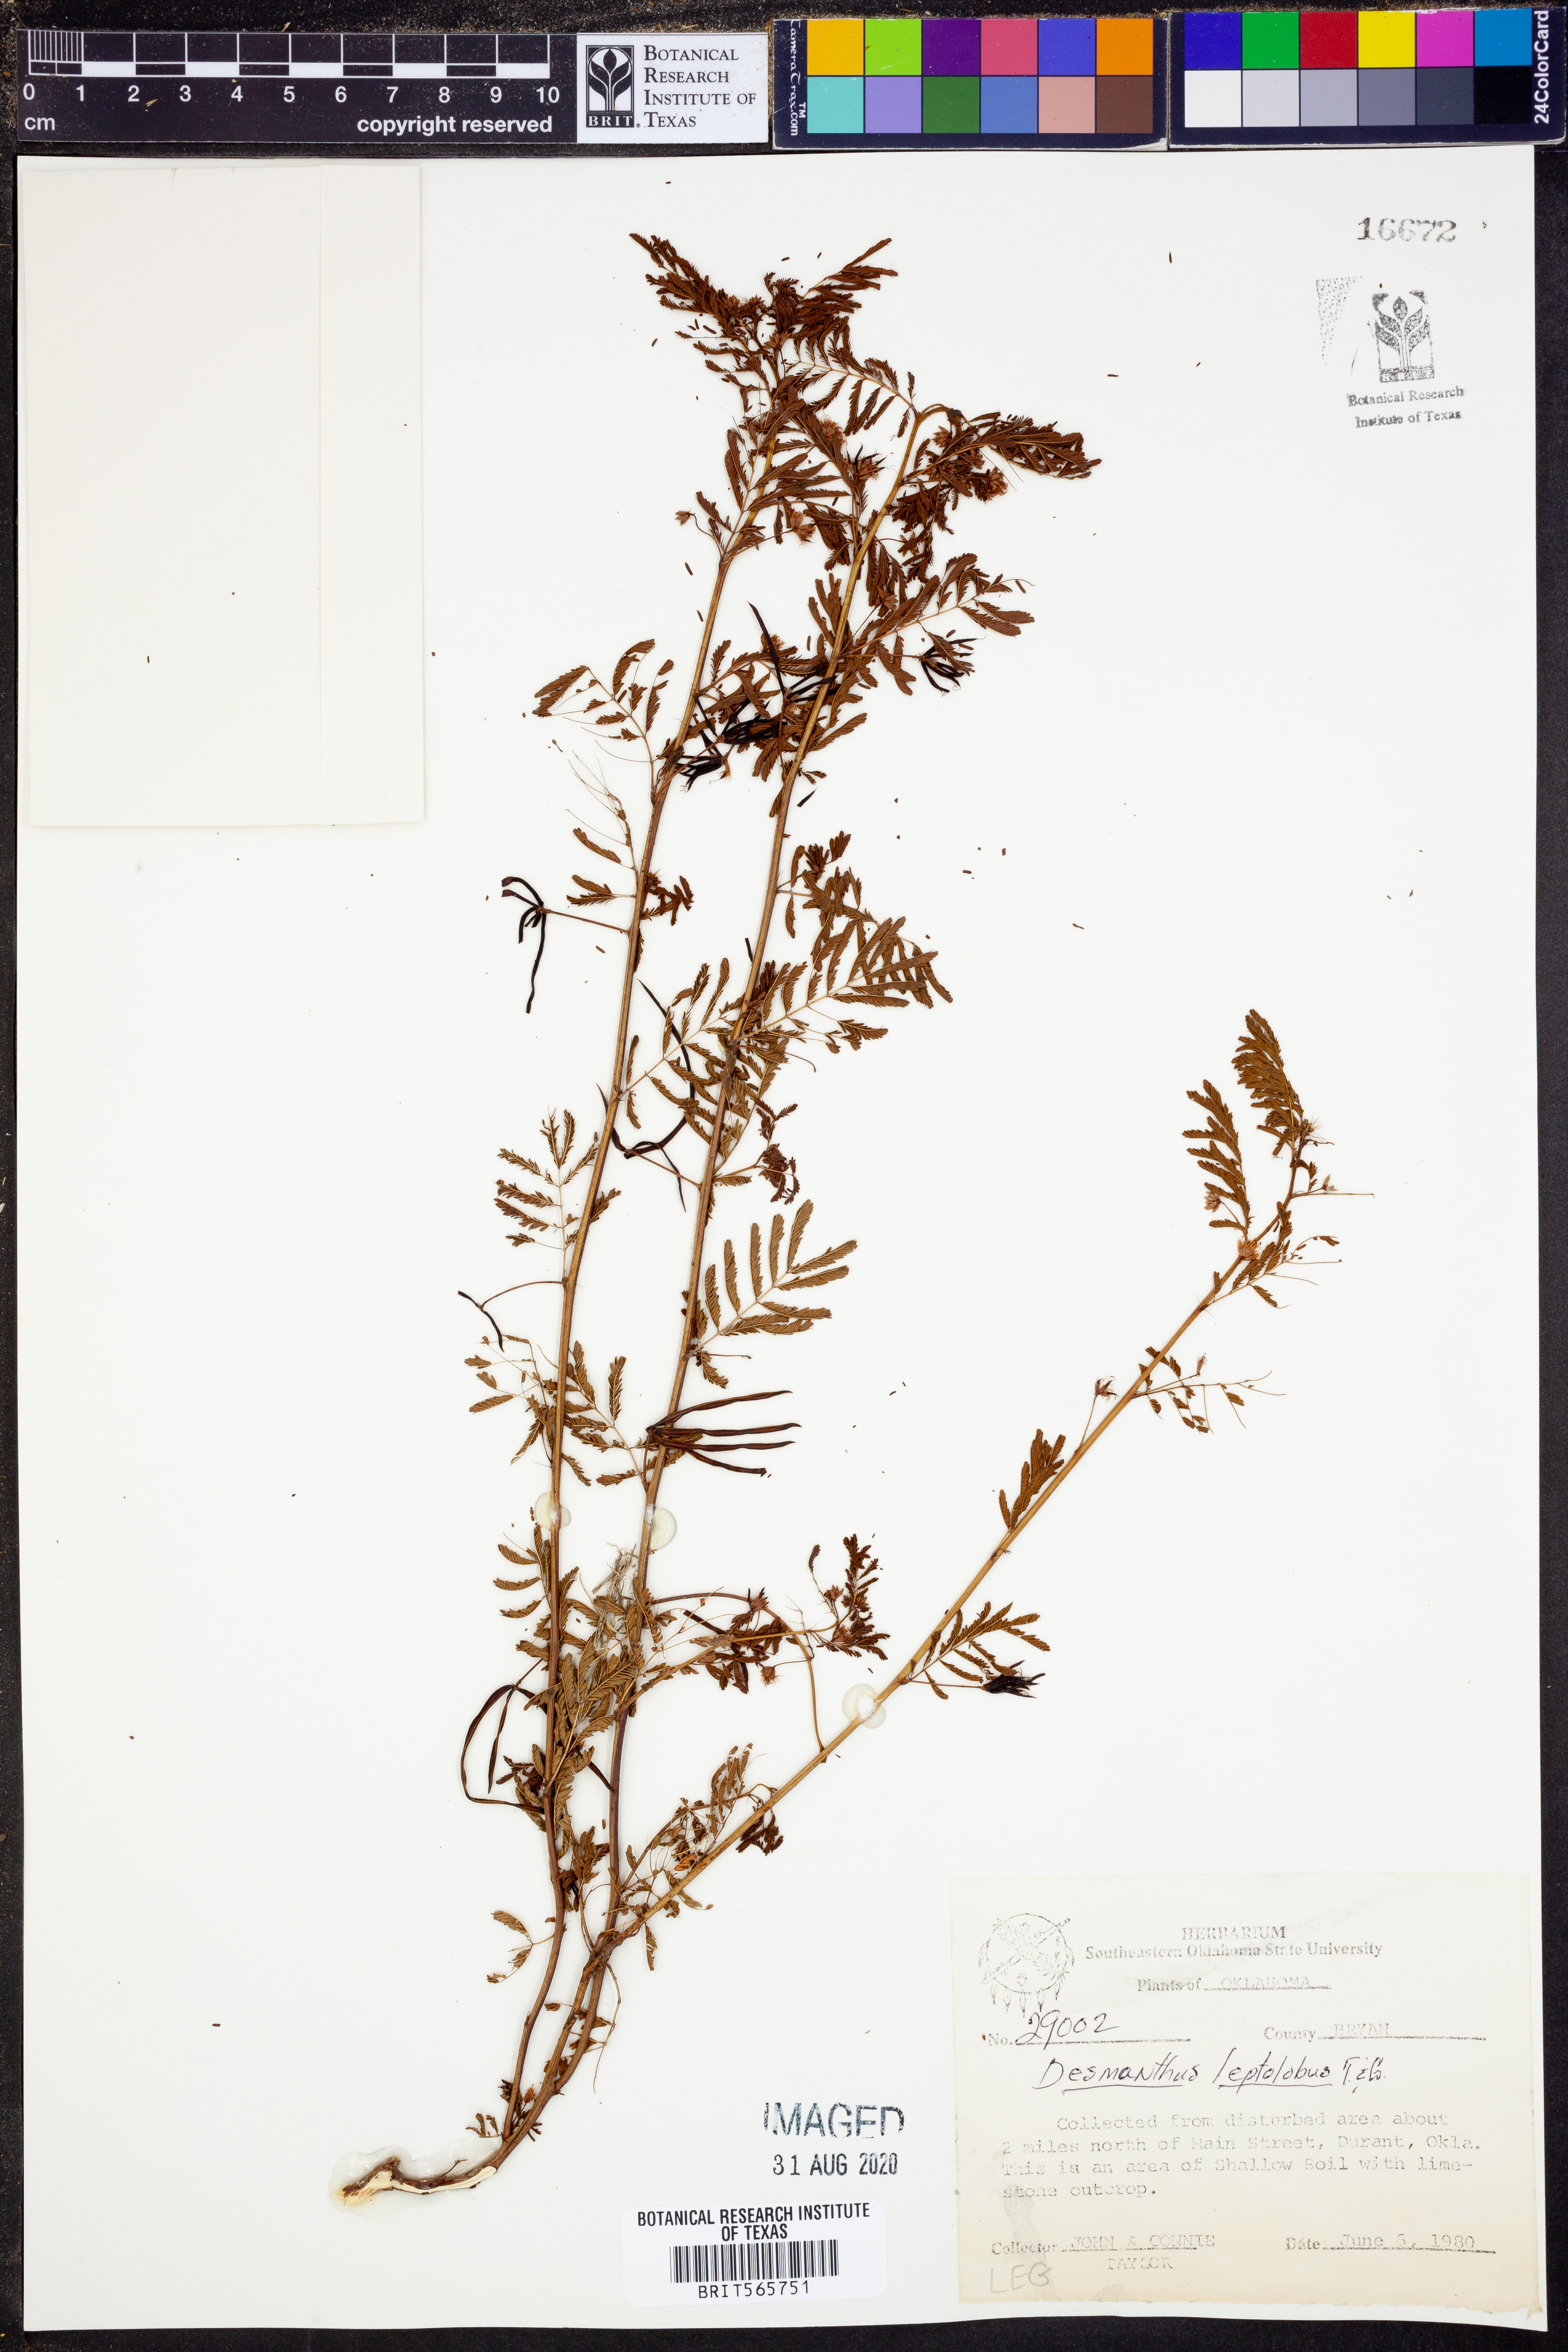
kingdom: Plantae
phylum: Tracheophyta
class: Magnoliopsida
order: Fabales
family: Fabaceae
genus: Desmanthus
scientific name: Desmanthus leptolobus
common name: Prairie-mimosa
